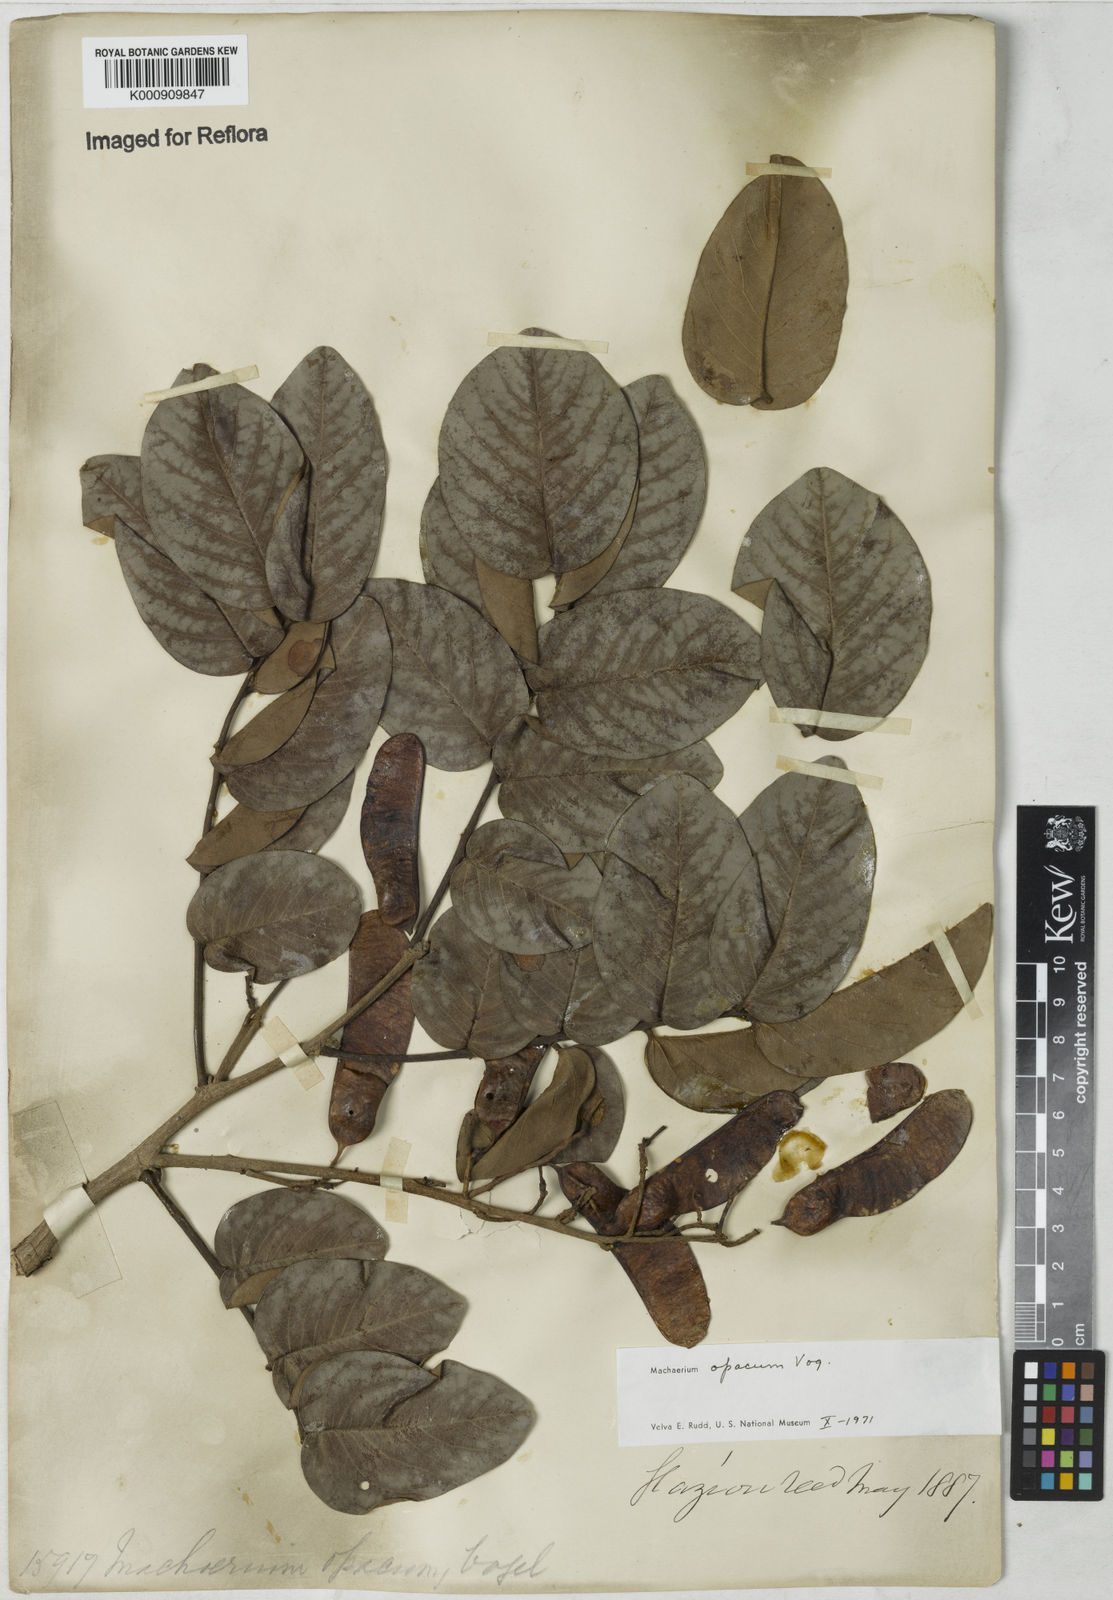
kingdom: Plantae
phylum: Tracheophyta
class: Magnoliopsida
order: Fabales
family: Fabaceae
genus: Machaerium
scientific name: Machaerium opacum
